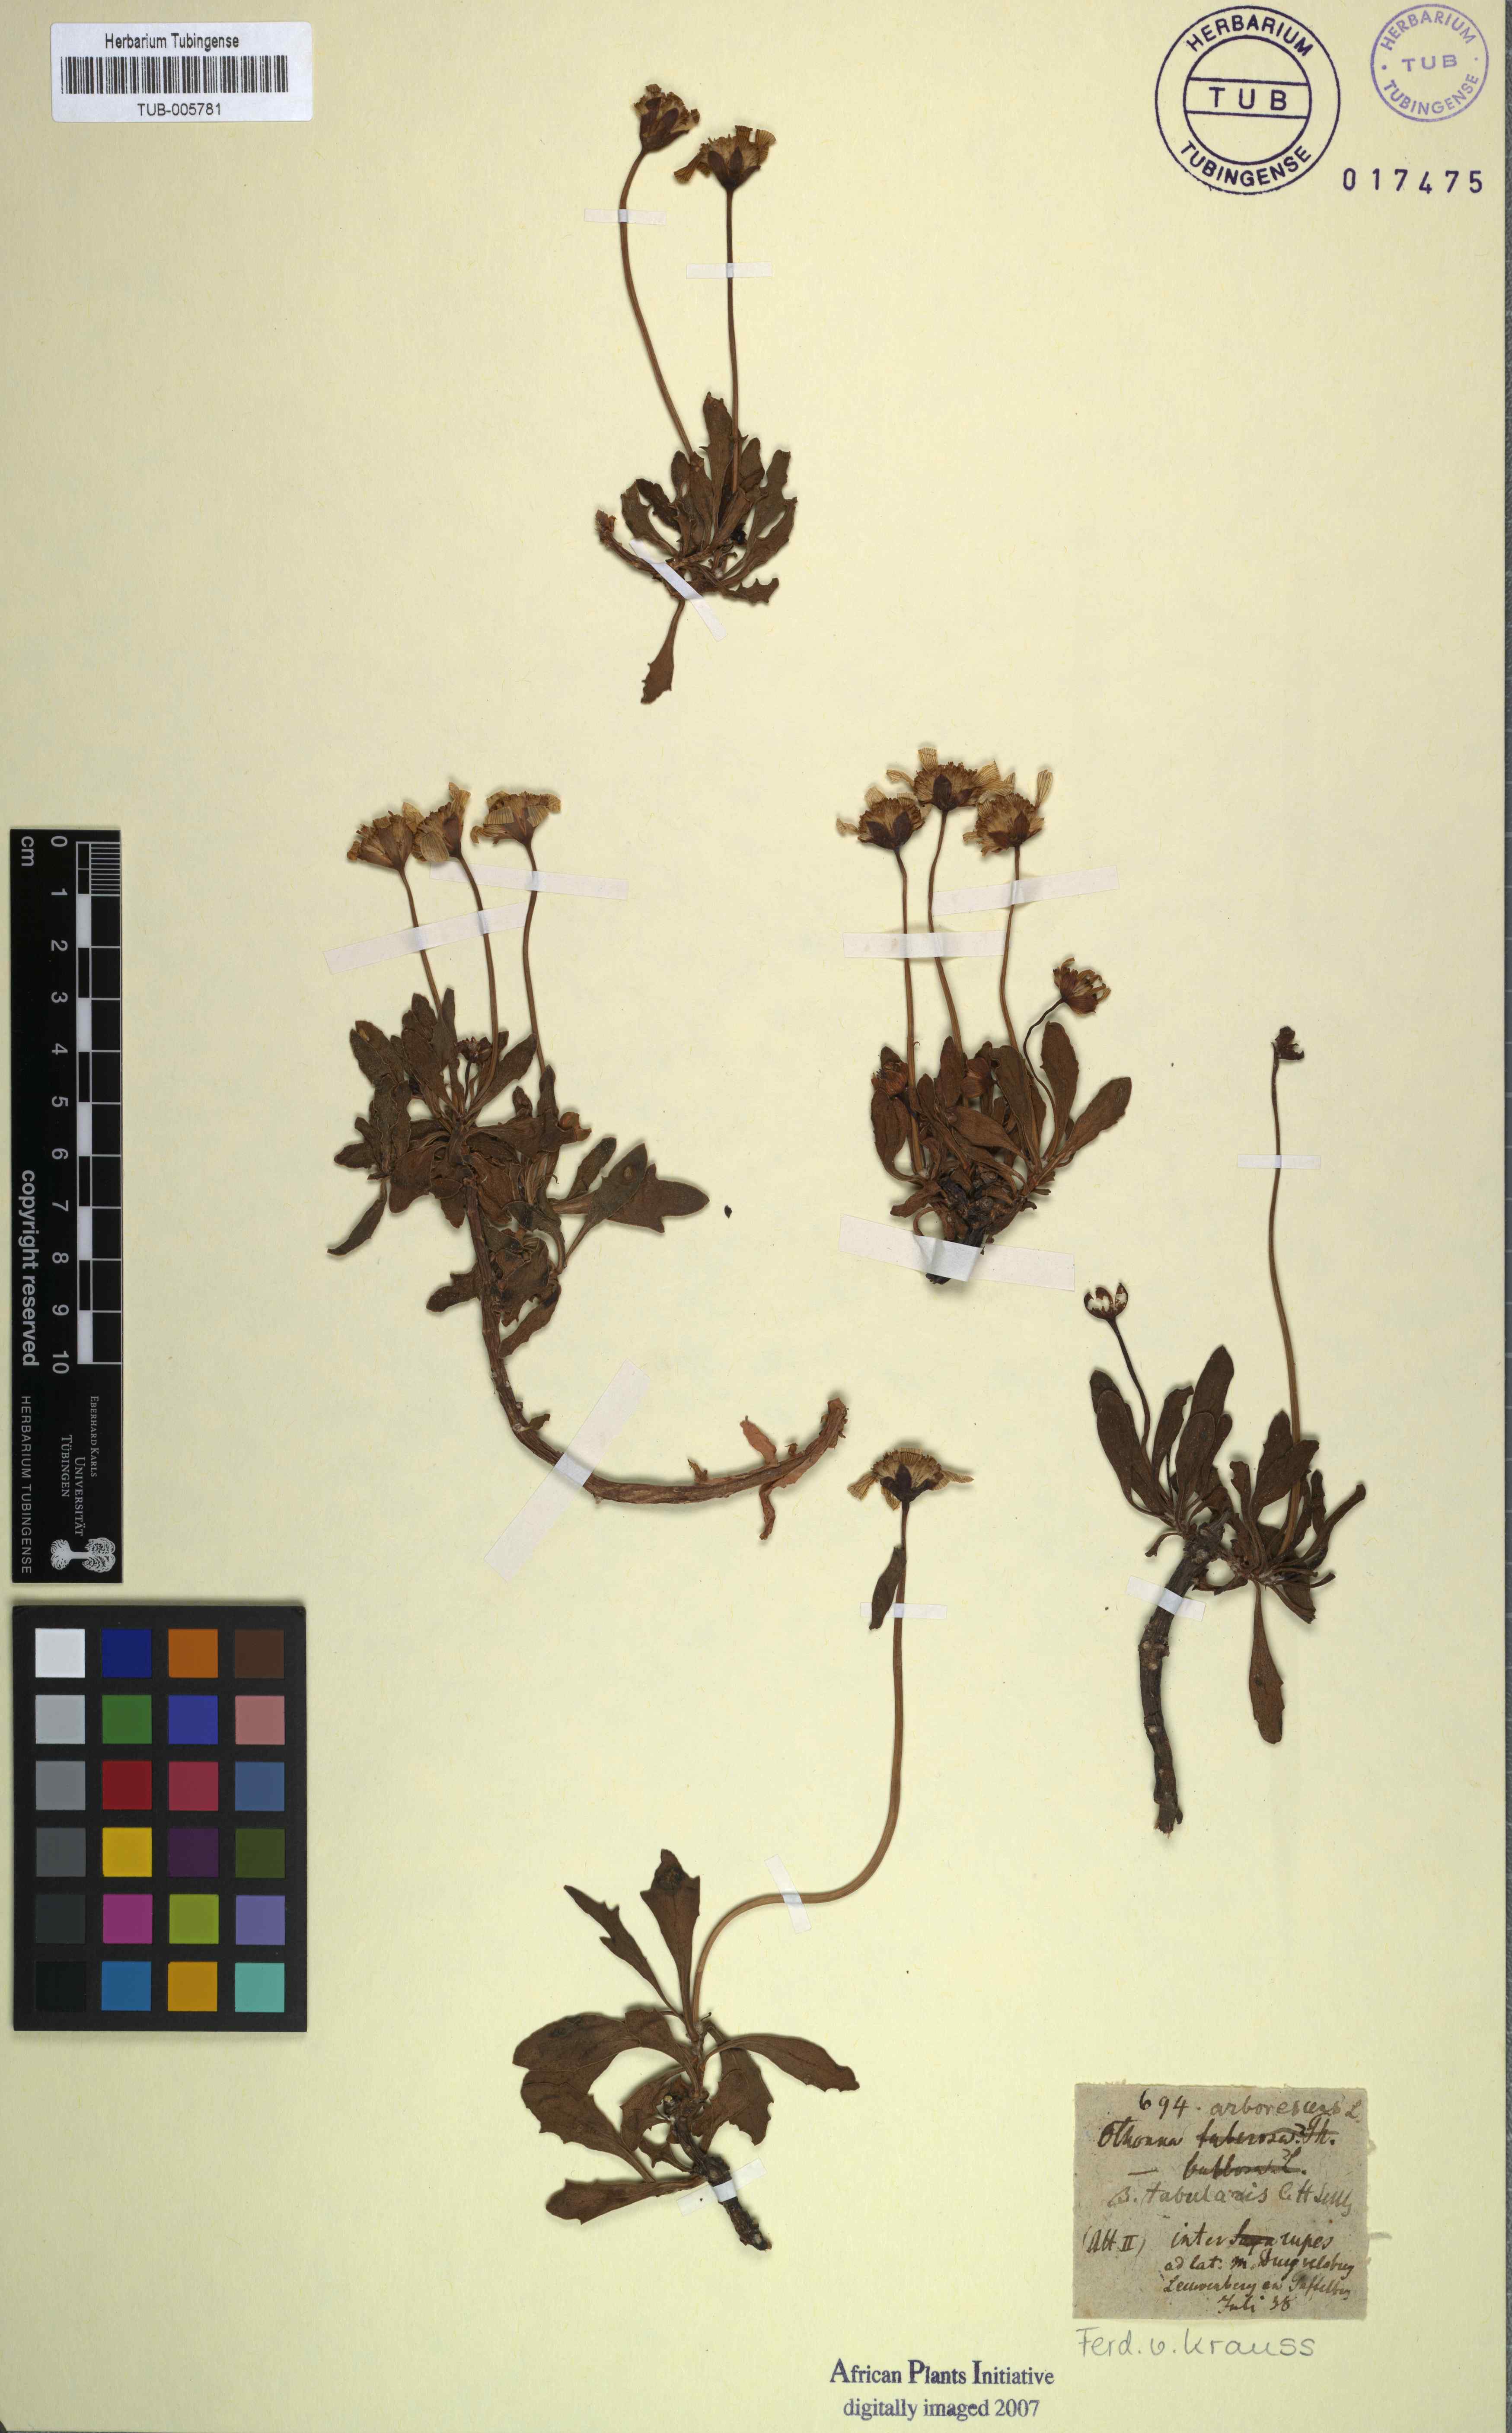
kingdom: Plantae
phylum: Tracheophyta
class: Magnoliopsida
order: Asterales
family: Asteraceae
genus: Othonna
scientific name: Othonna arborescens
